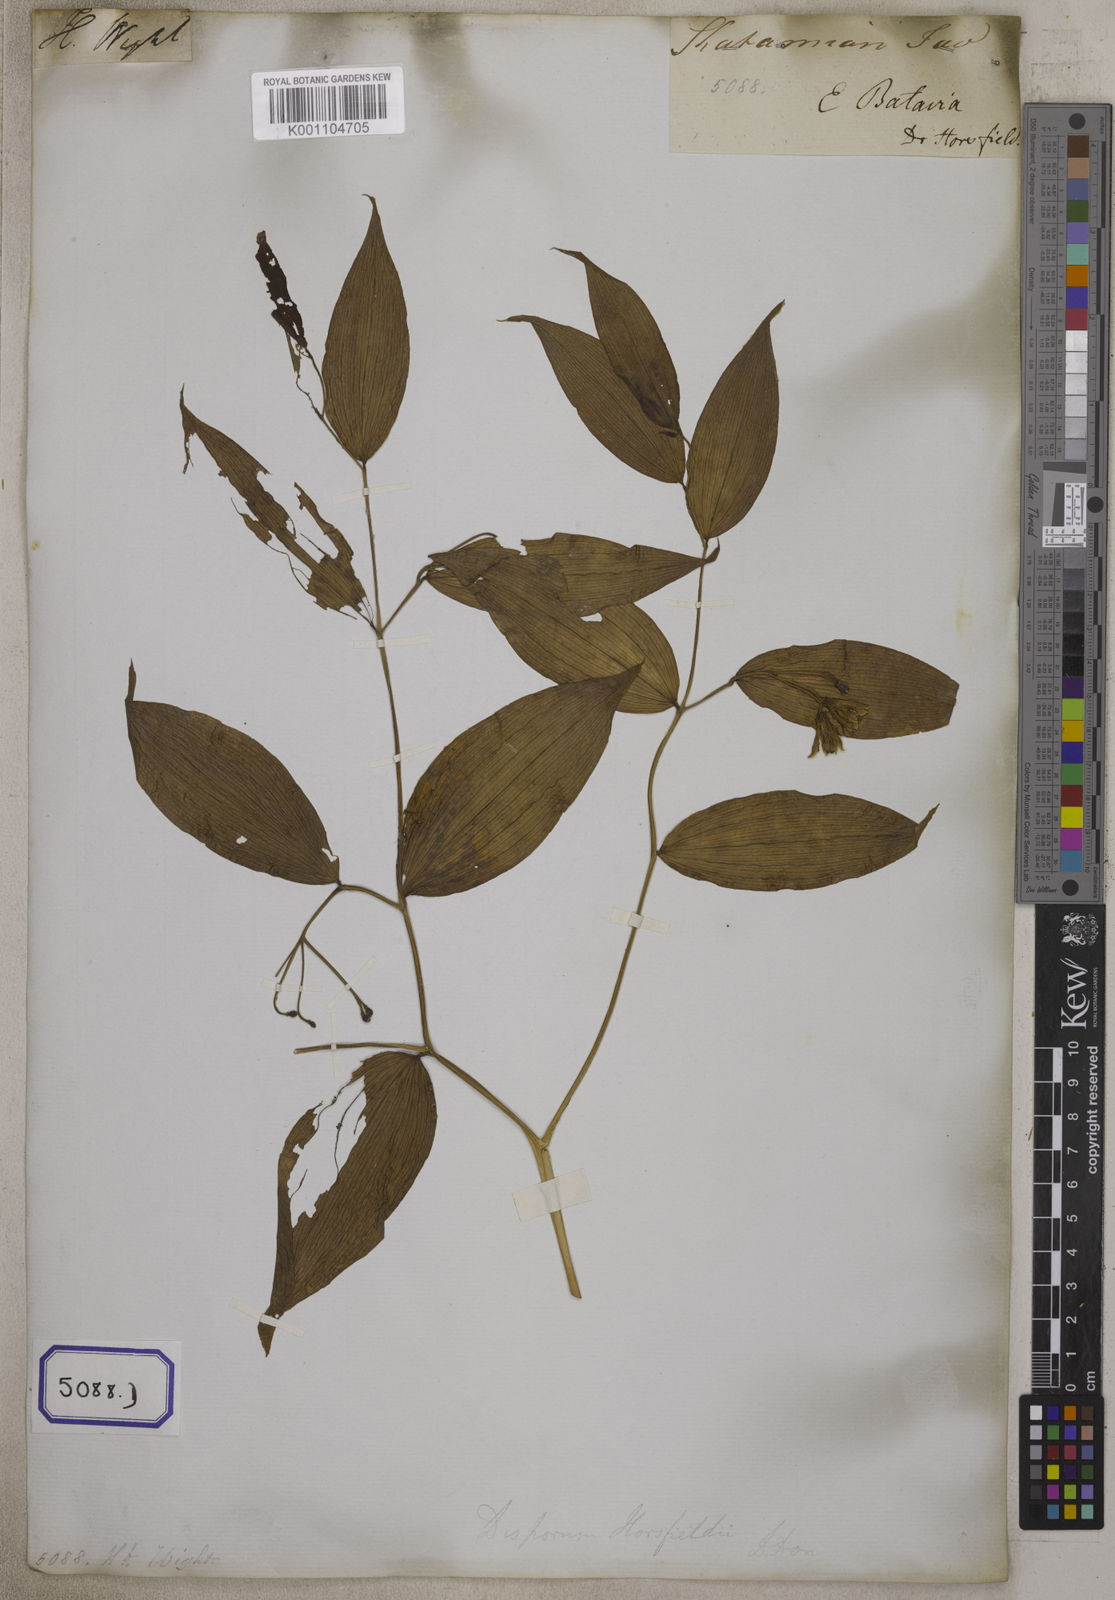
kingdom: Plantae
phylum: Tracheophyta
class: Liliopsida
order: Liliales
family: Colchicaceae
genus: Disporum
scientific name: Disporum calcaratum
